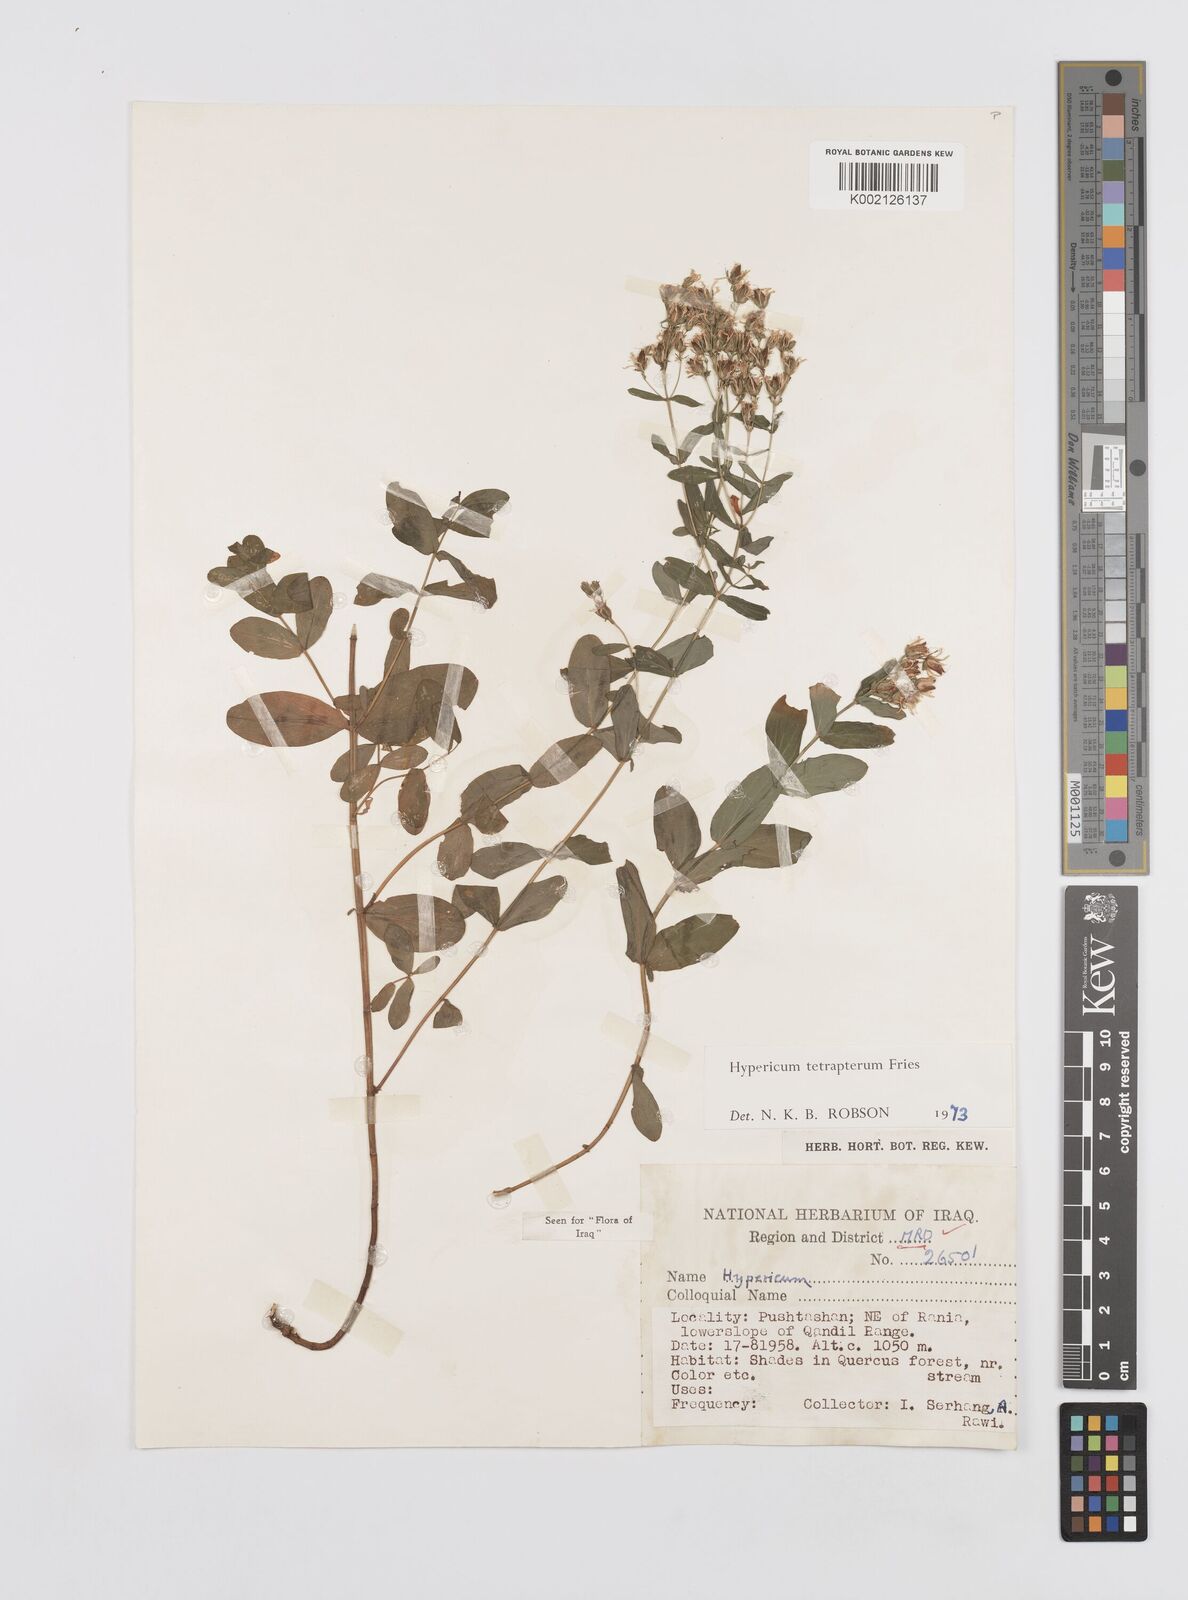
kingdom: Plantae
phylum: Tracheophyta
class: Magnoliopsida
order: Malpighiales
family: Hypericaceae
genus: Hypericum
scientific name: Hypericum tetrapterum
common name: Square-stalked st. john's-wort
